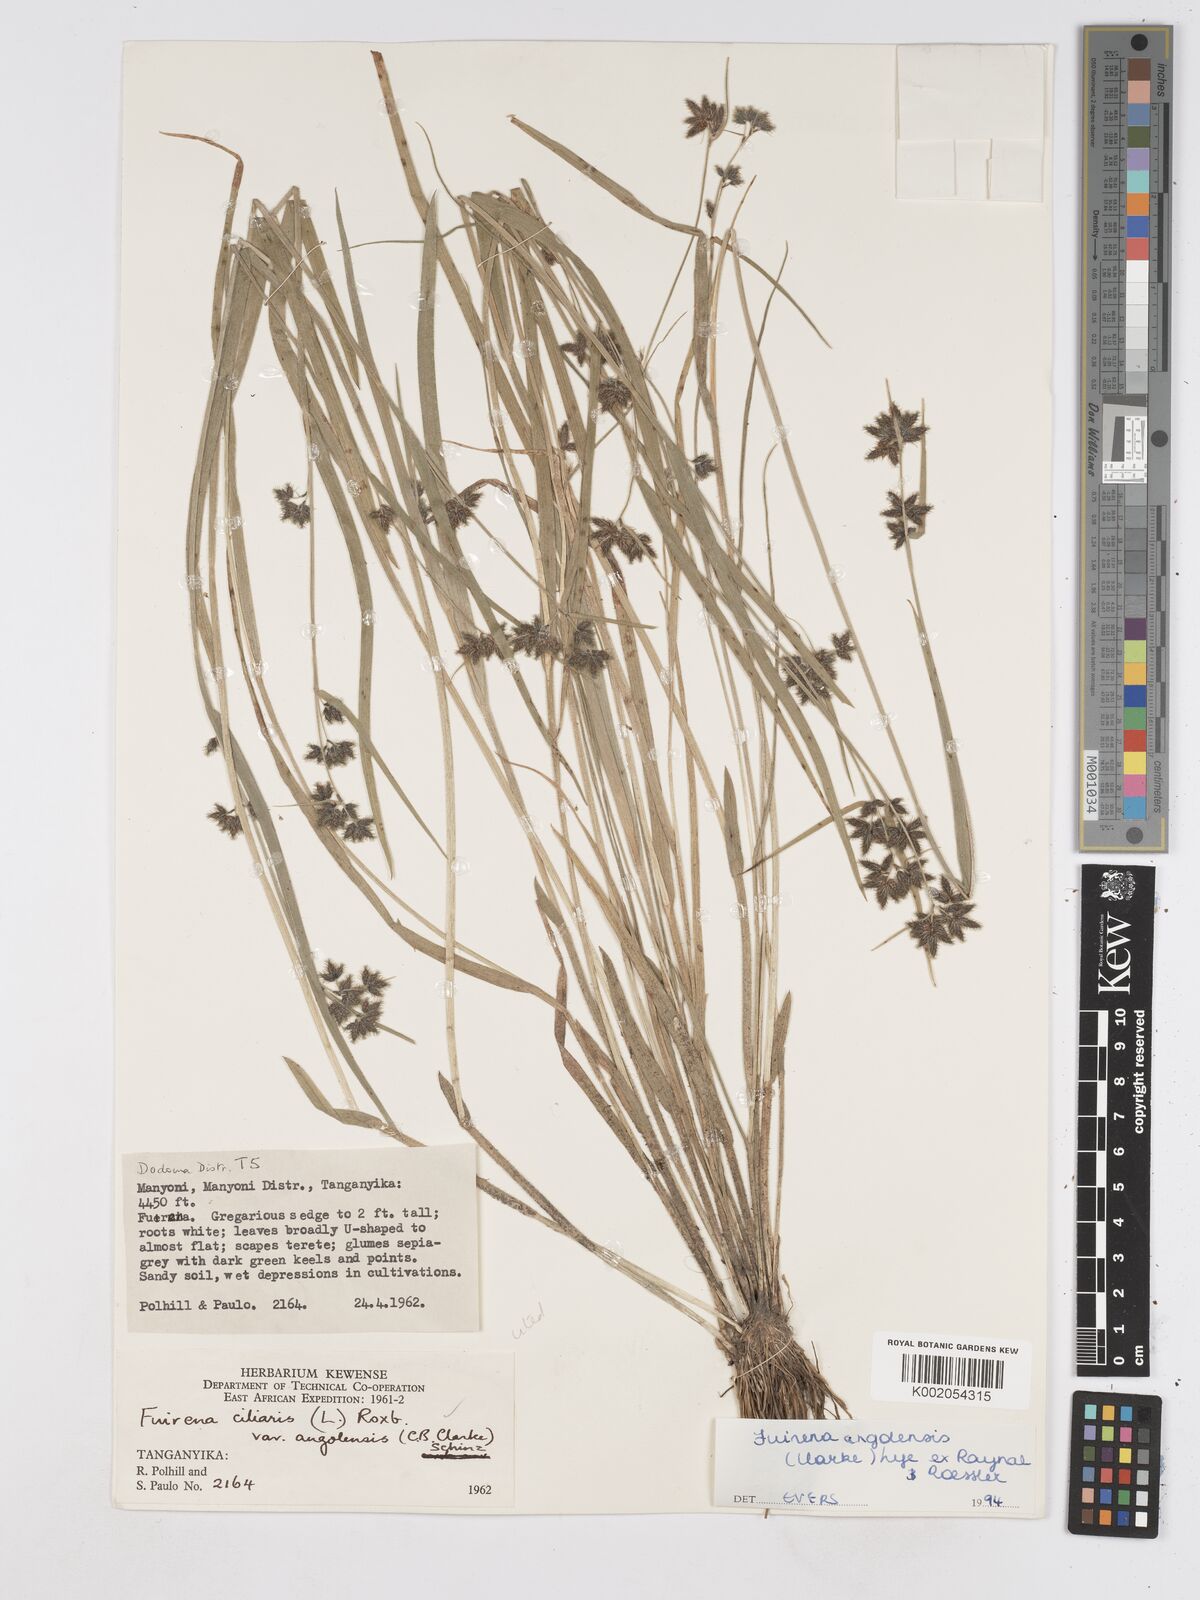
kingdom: Plantae
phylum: Tracheophyta
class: Liliopsida
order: Poales
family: Cyperaceae
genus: Fuirena
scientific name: Fuirena angolensis
